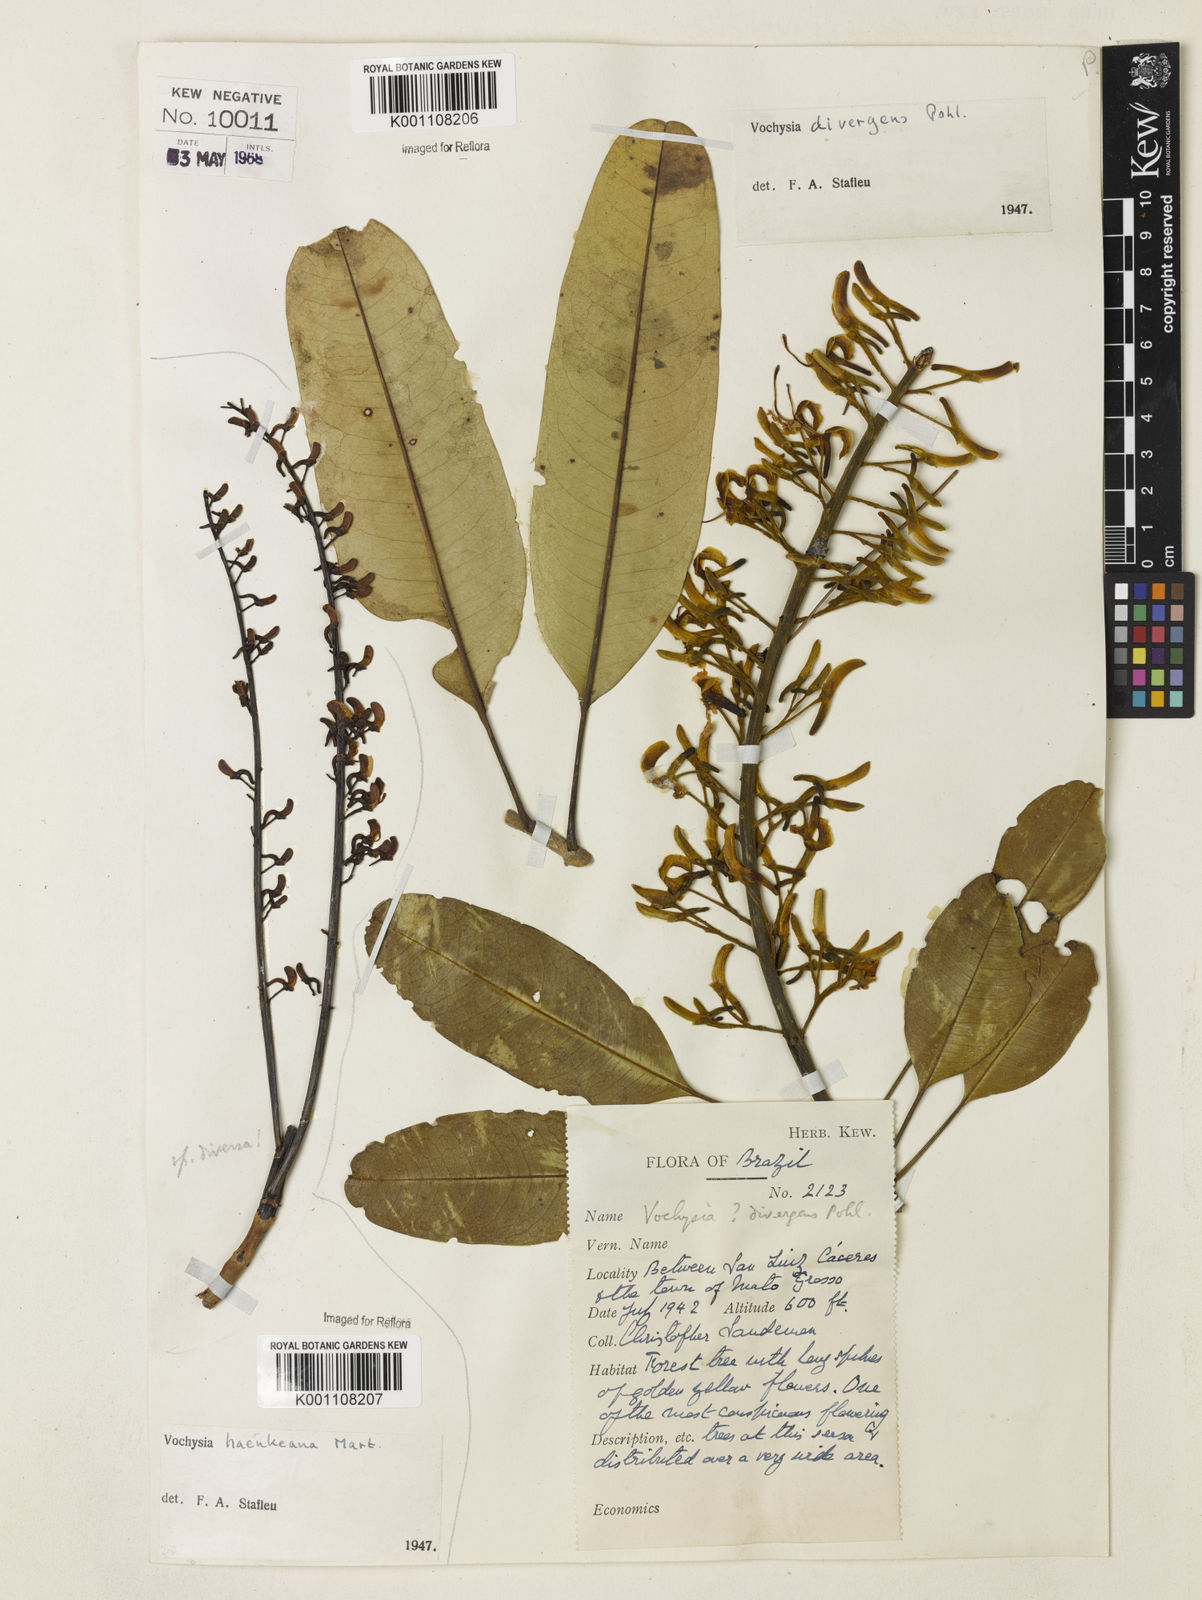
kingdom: Plantae
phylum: Tracheophyta
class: Magnoliopsida
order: Myrtales
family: Vochysiaceae
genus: Vochysia
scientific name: Vochysia divergens
